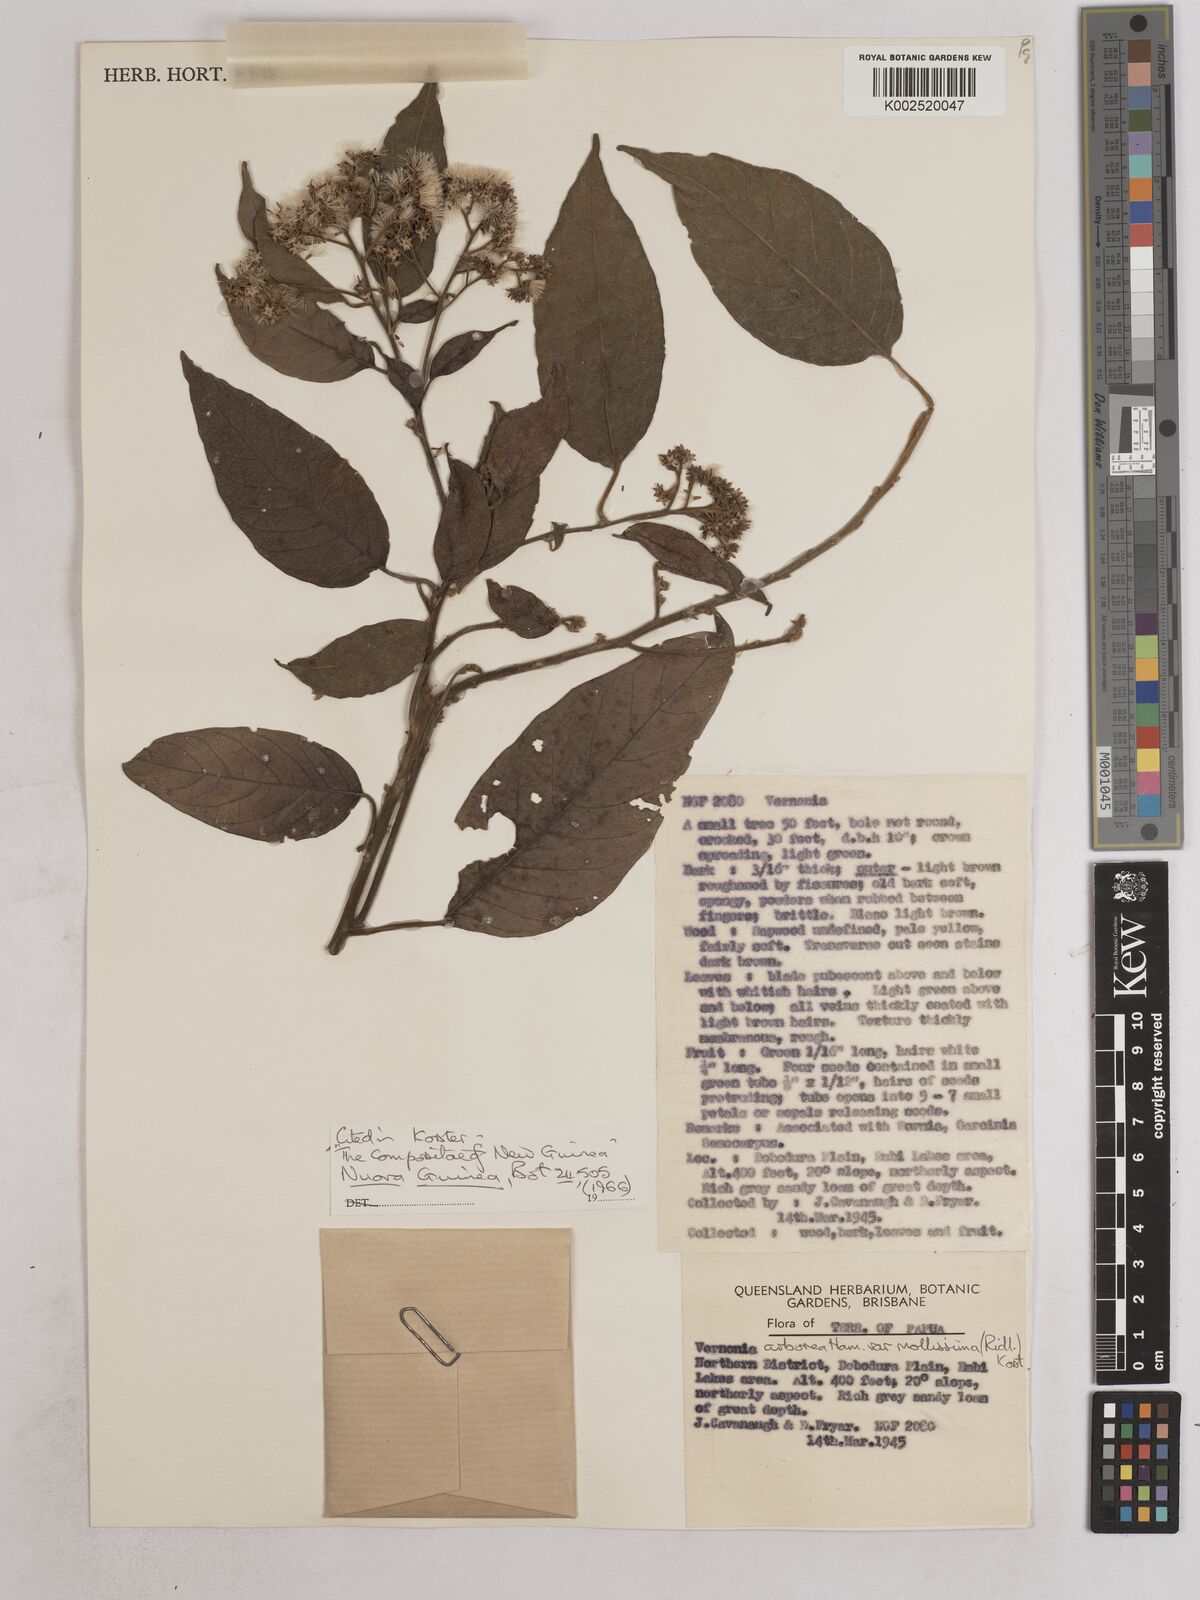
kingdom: Plantae
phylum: Tracheophyta
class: Magnoliopsida
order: Asterales
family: Asteraceae
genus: Strobocalyx
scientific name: Strobocalyx arborea
